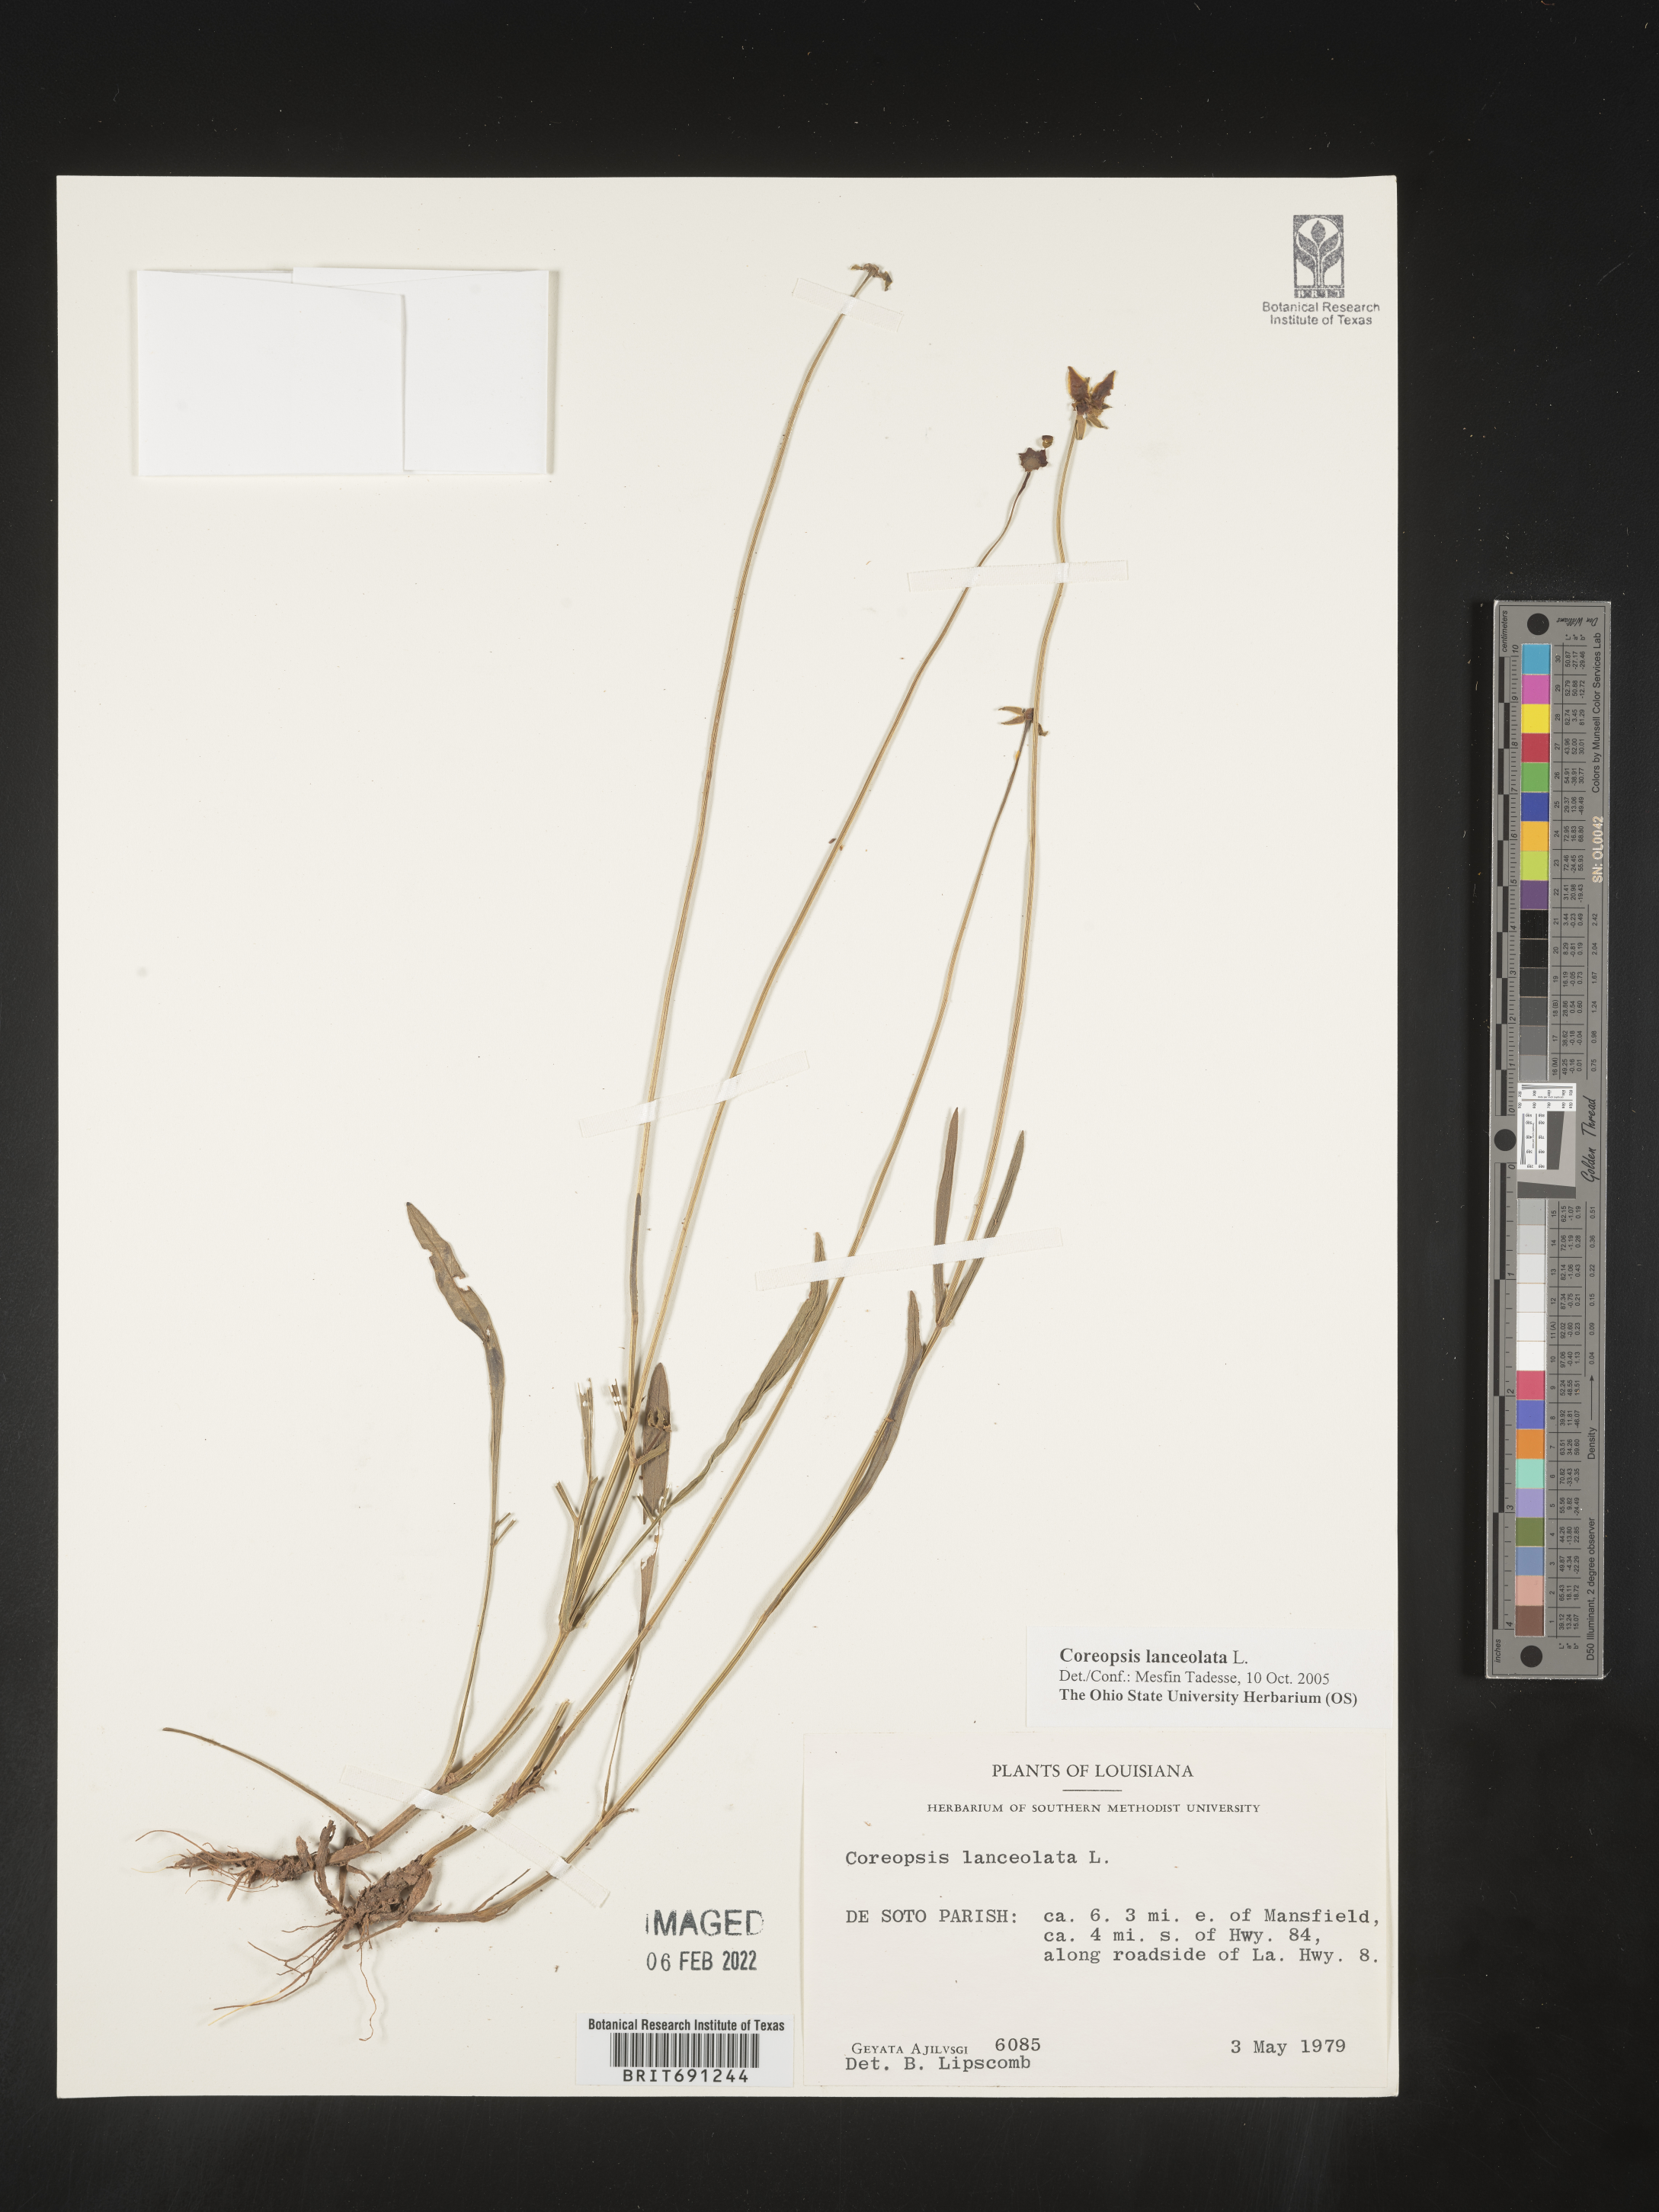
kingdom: Plantae
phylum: Tracheophyta
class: Magnoliopsida
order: Asterales
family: Asteraceae
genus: Coreopsis
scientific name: Coreopsis lanceolata
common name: Garden coreopsis
